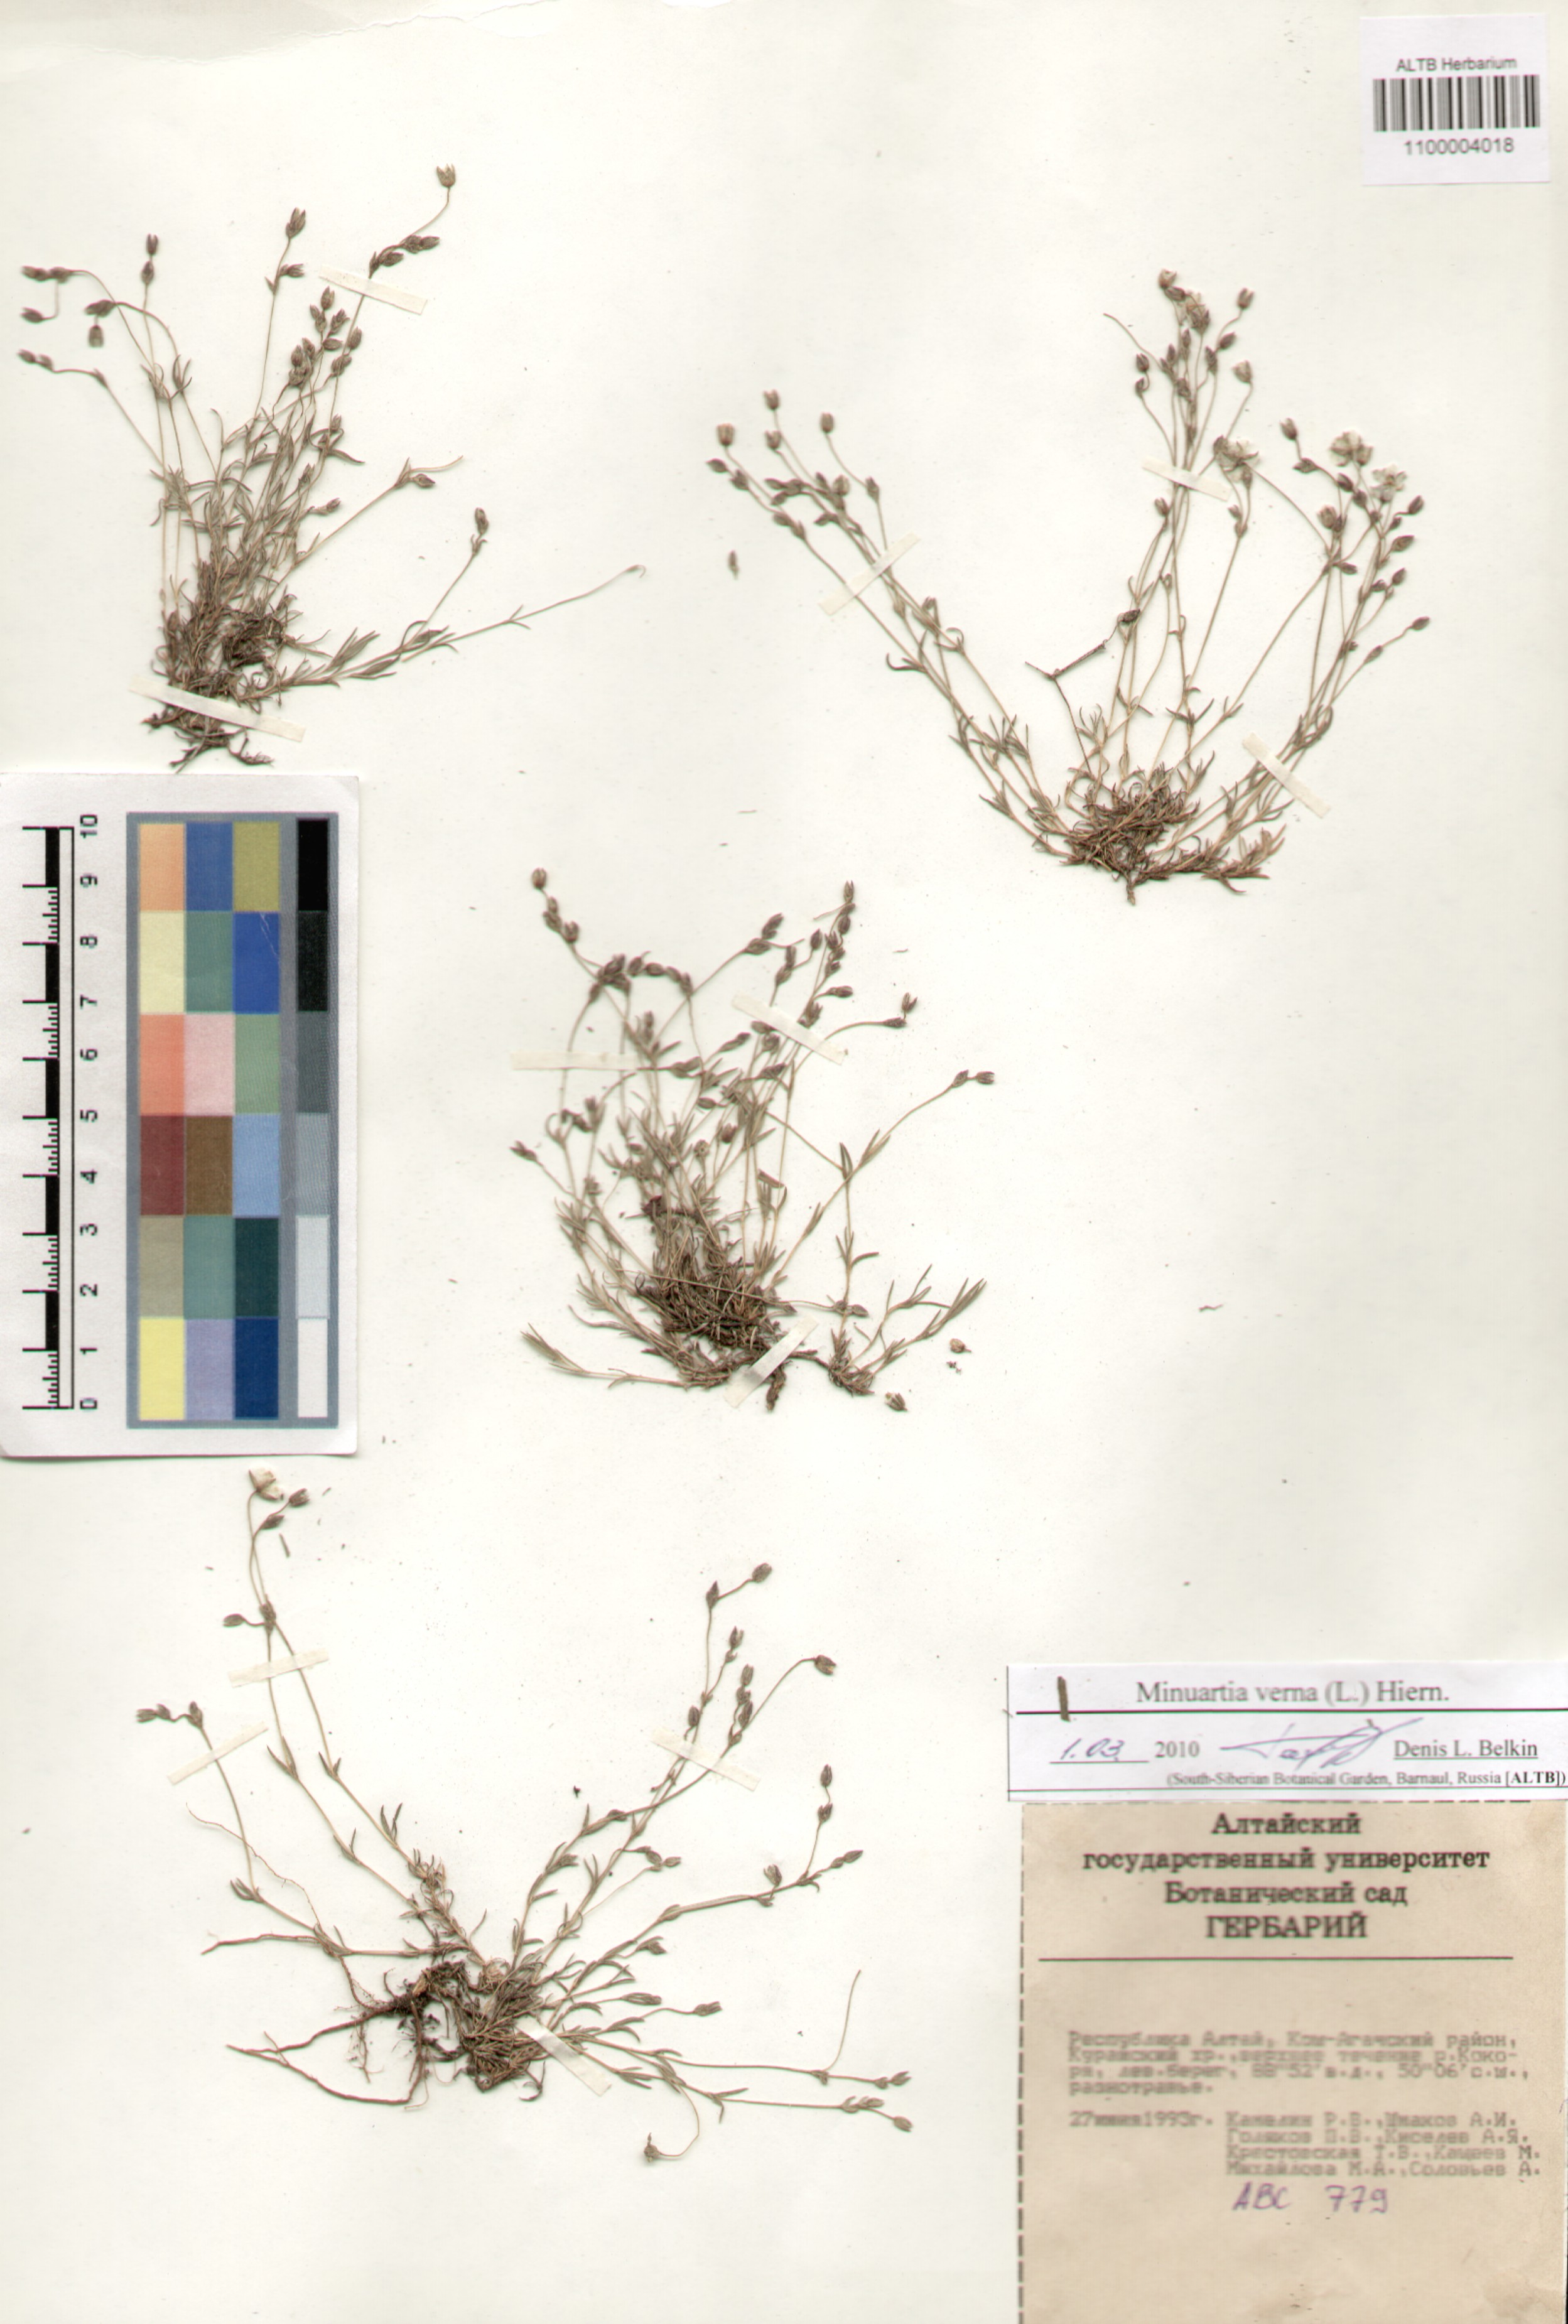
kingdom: Plantae
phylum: Tracheophyta
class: Magnoliopsida
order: Caryophyllales
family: Caryophyllaceae
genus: Sabulina
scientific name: Sabulina verna
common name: Spring sandwort
